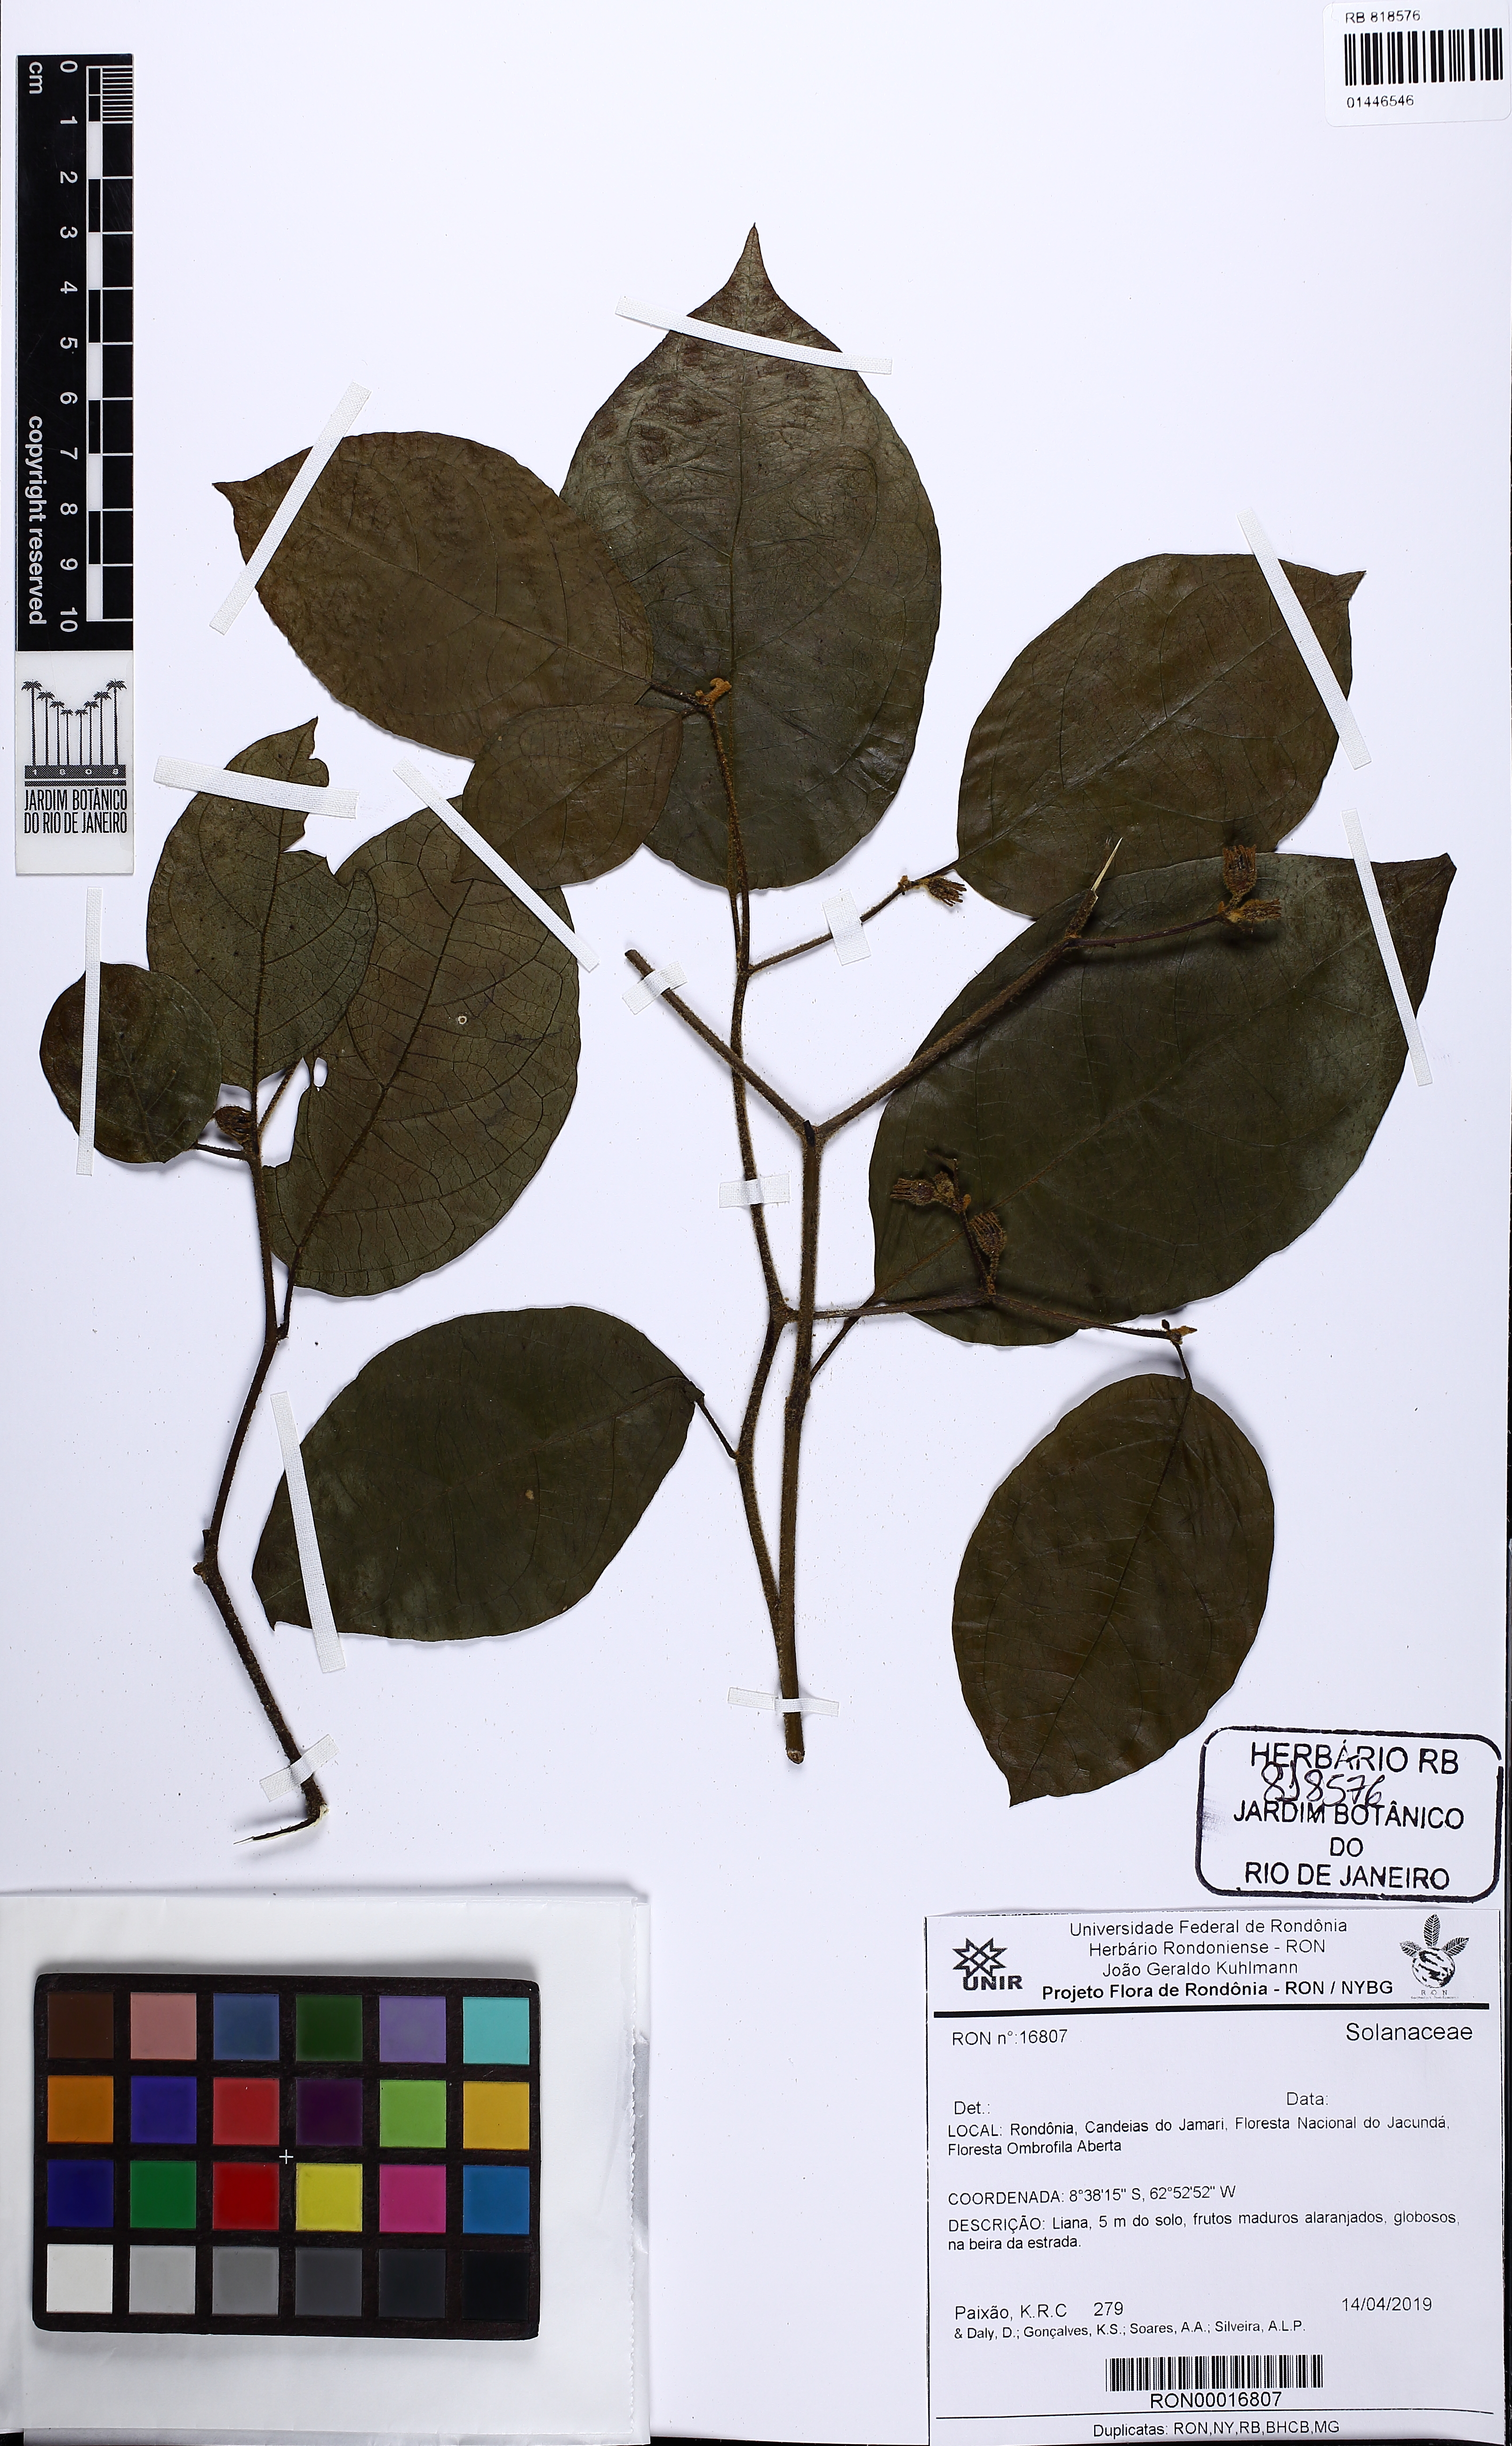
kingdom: Plantae
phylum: Tracheophyta
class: Magnoliopsida
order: Solanales
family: Solanaceae
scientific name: Solanaceae
